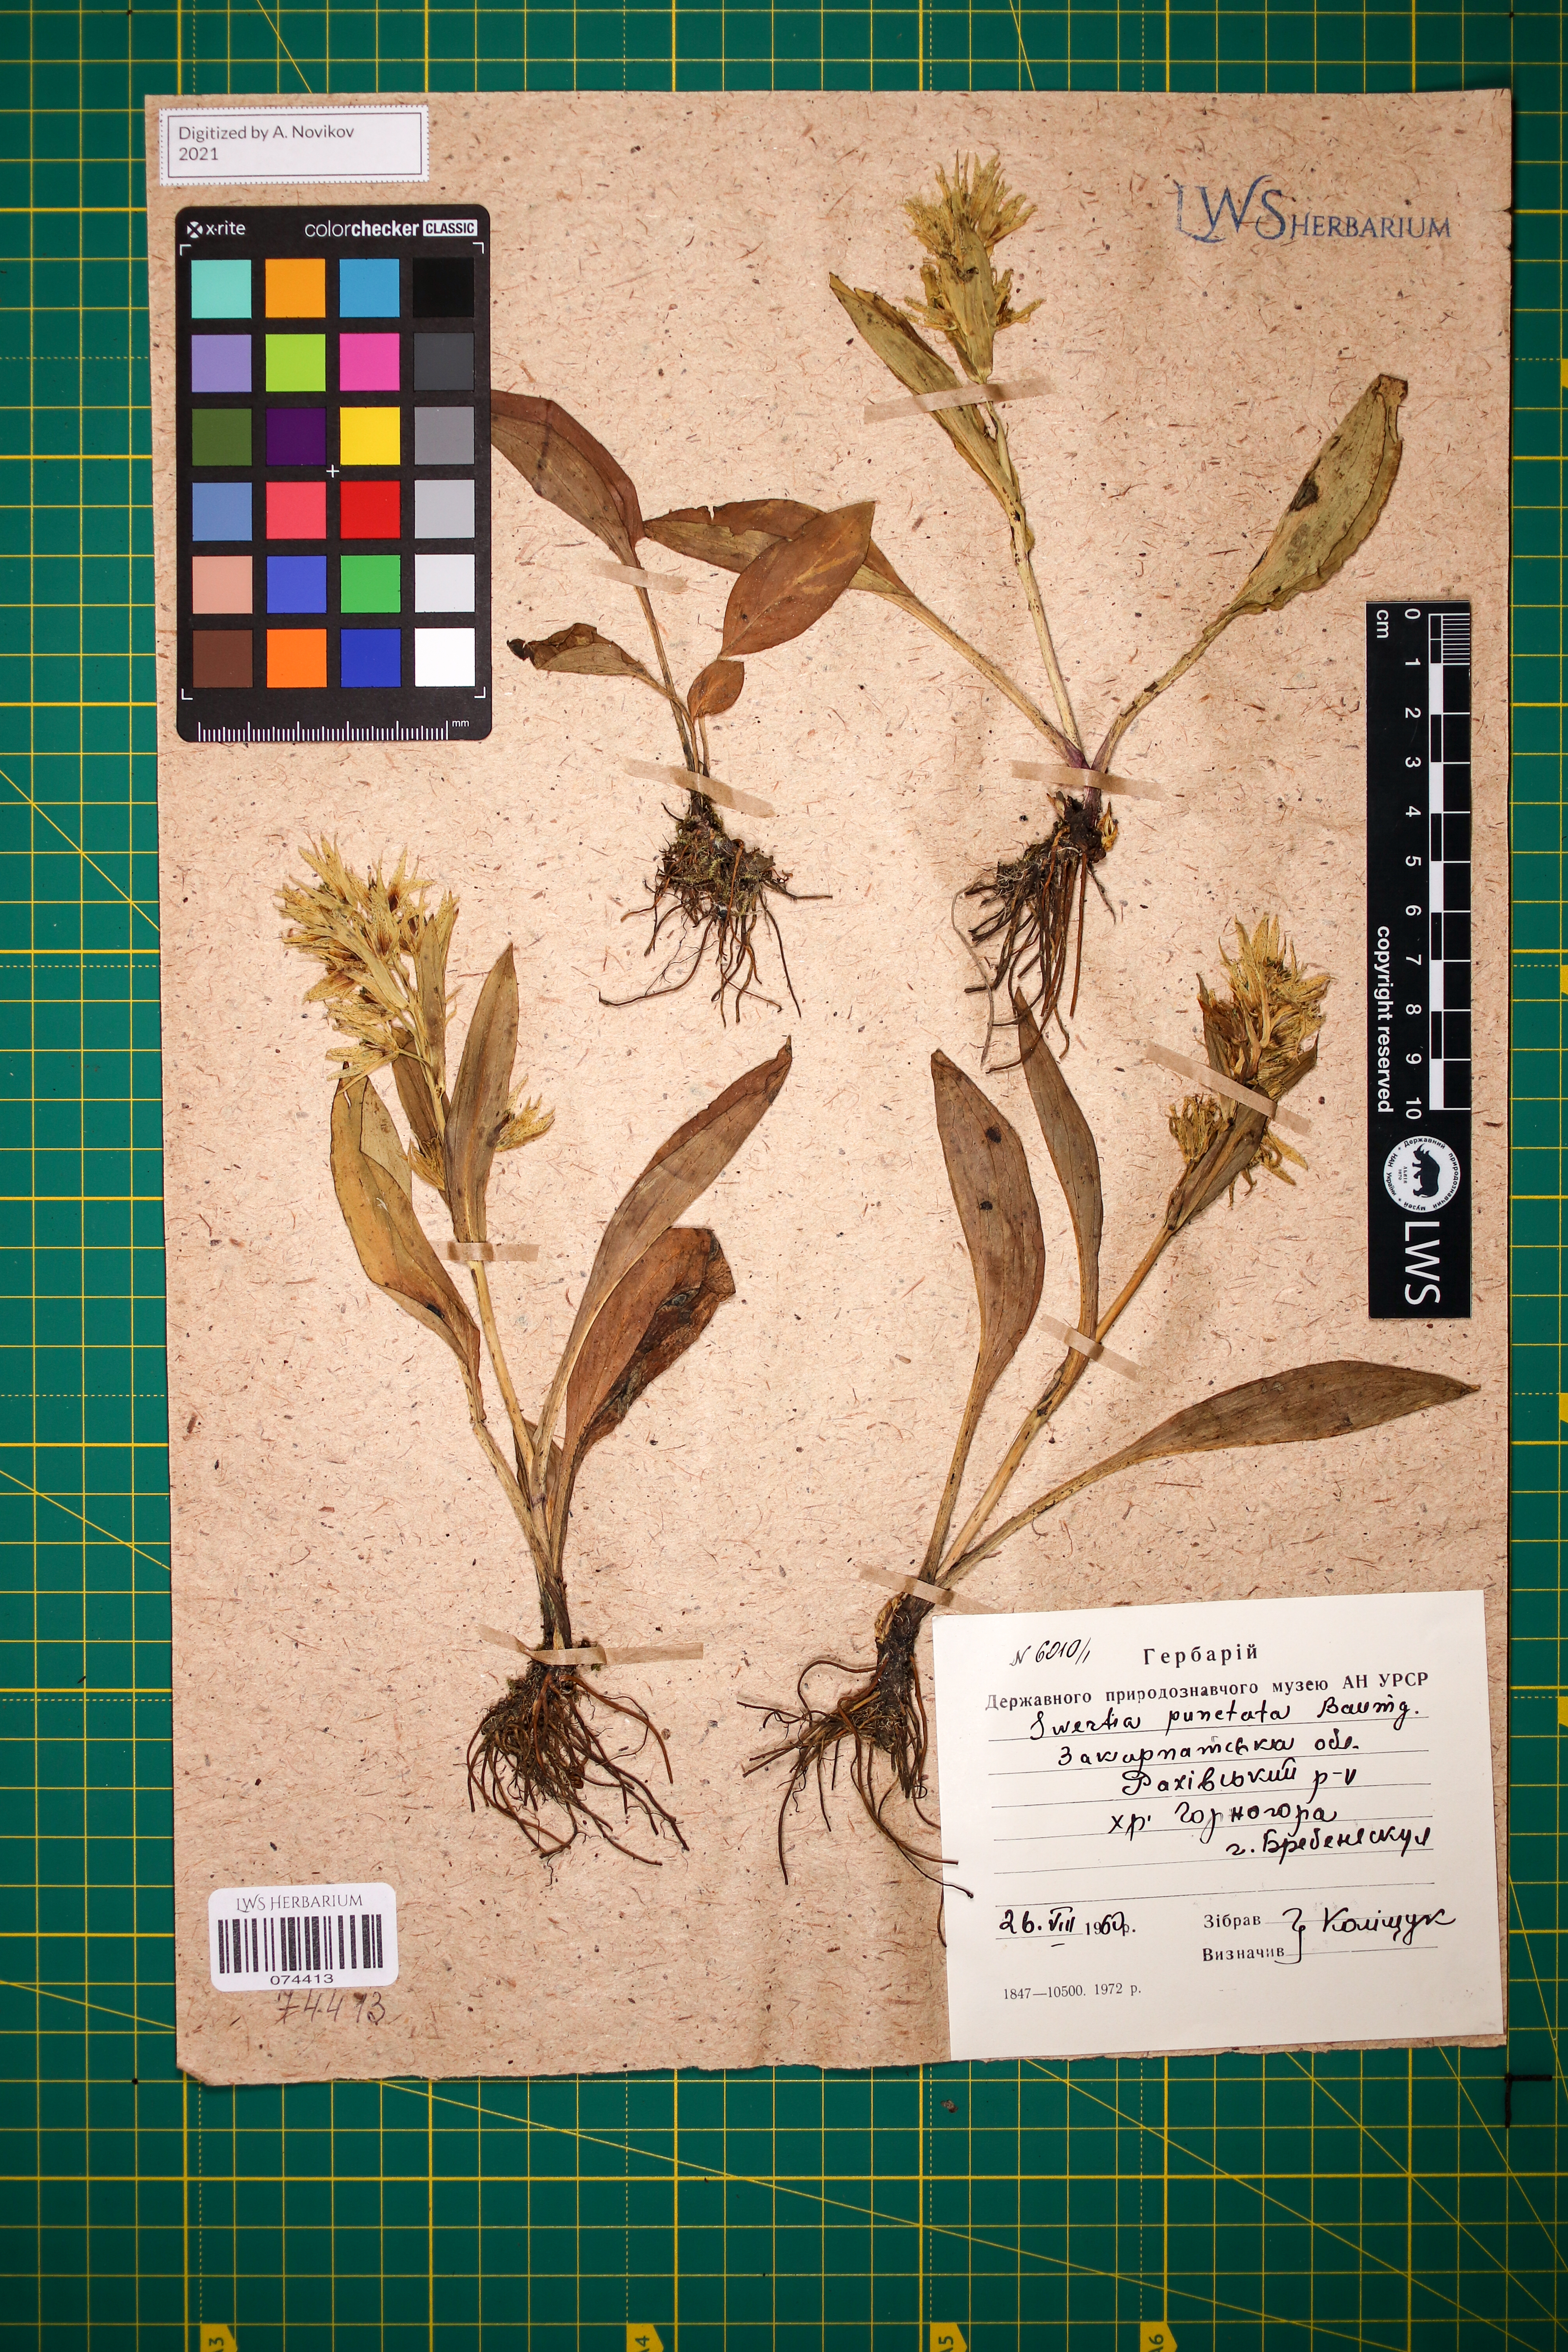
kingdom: Plantae
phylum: Tracheophyta
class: Magnoliopsida
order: Gentianales
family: Gentianaceae
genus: Swertia
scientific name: Swertia perennis
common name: Alpine bog swertia
